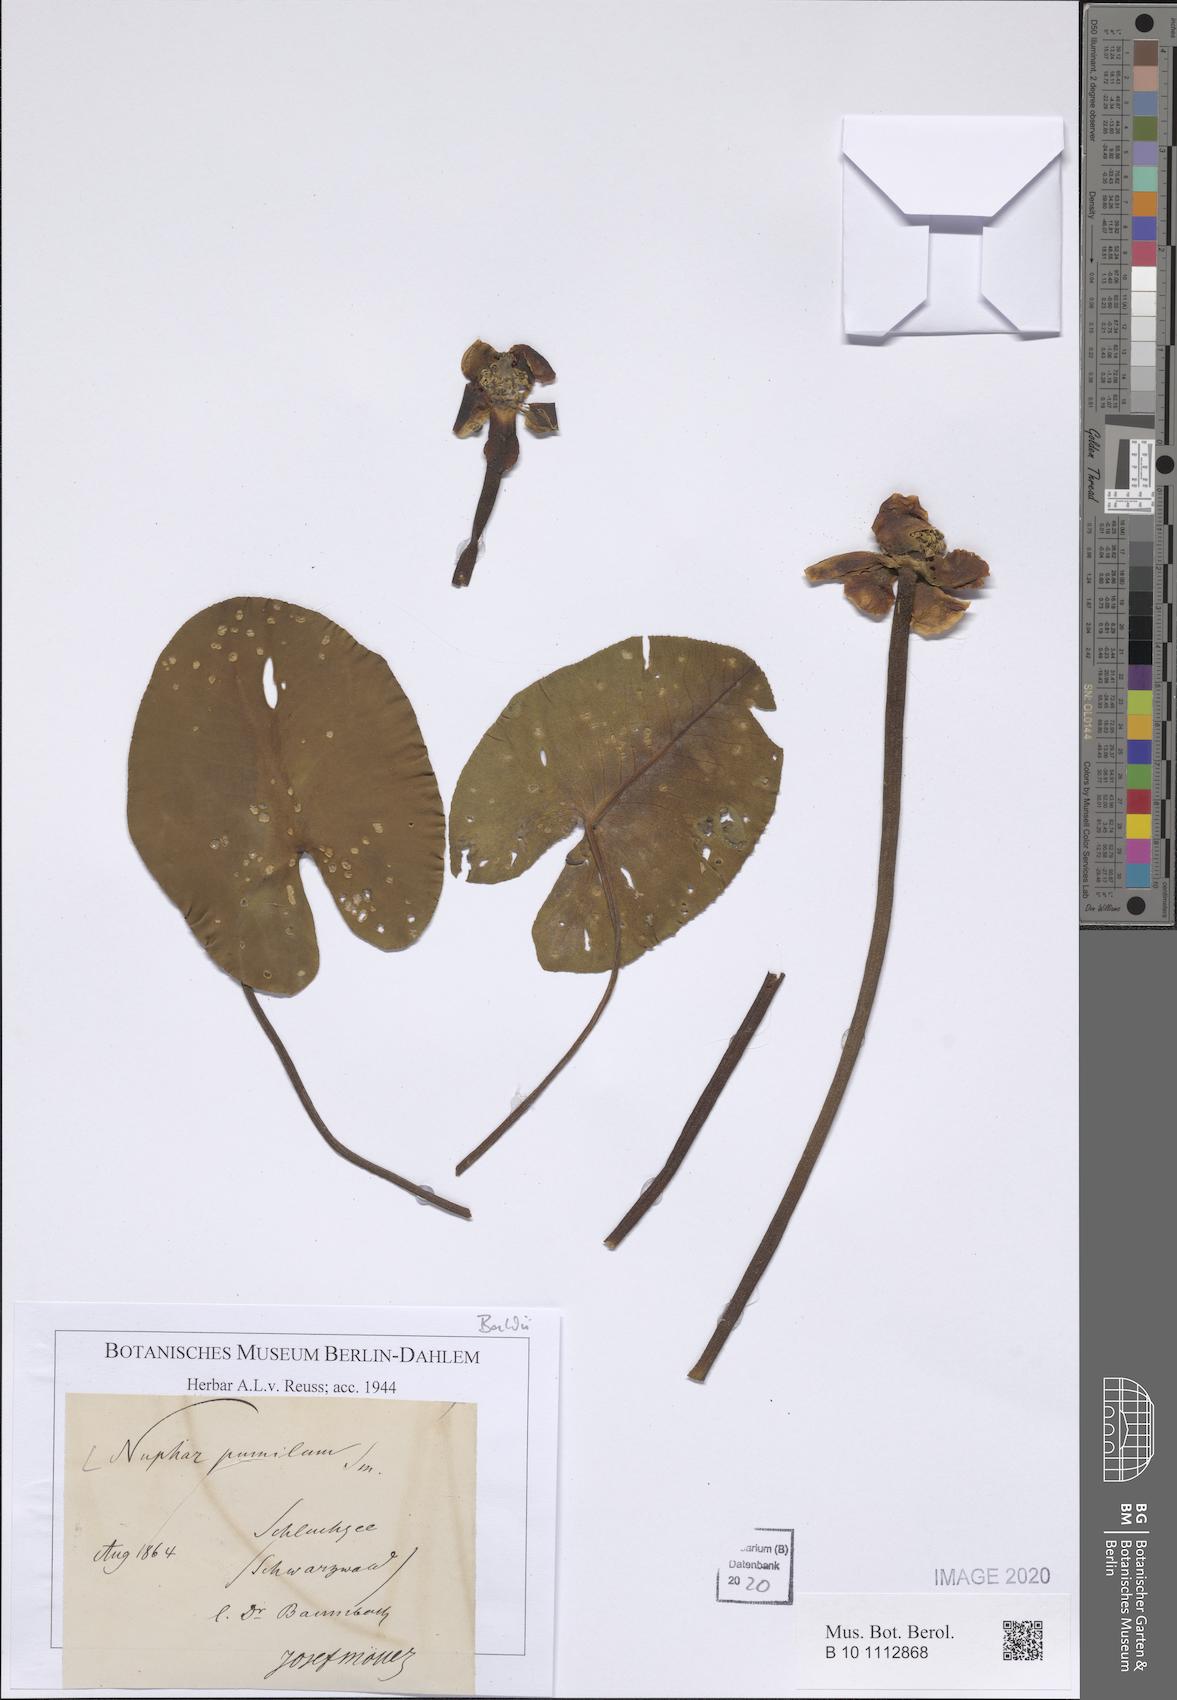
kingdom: Plantae
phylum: Tracheophyta
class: Magnoliopsida
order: Nymphaeales
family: Nymphaeaceae
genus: Nuphar
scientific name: Nuphar pumila
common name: Least water-lily
